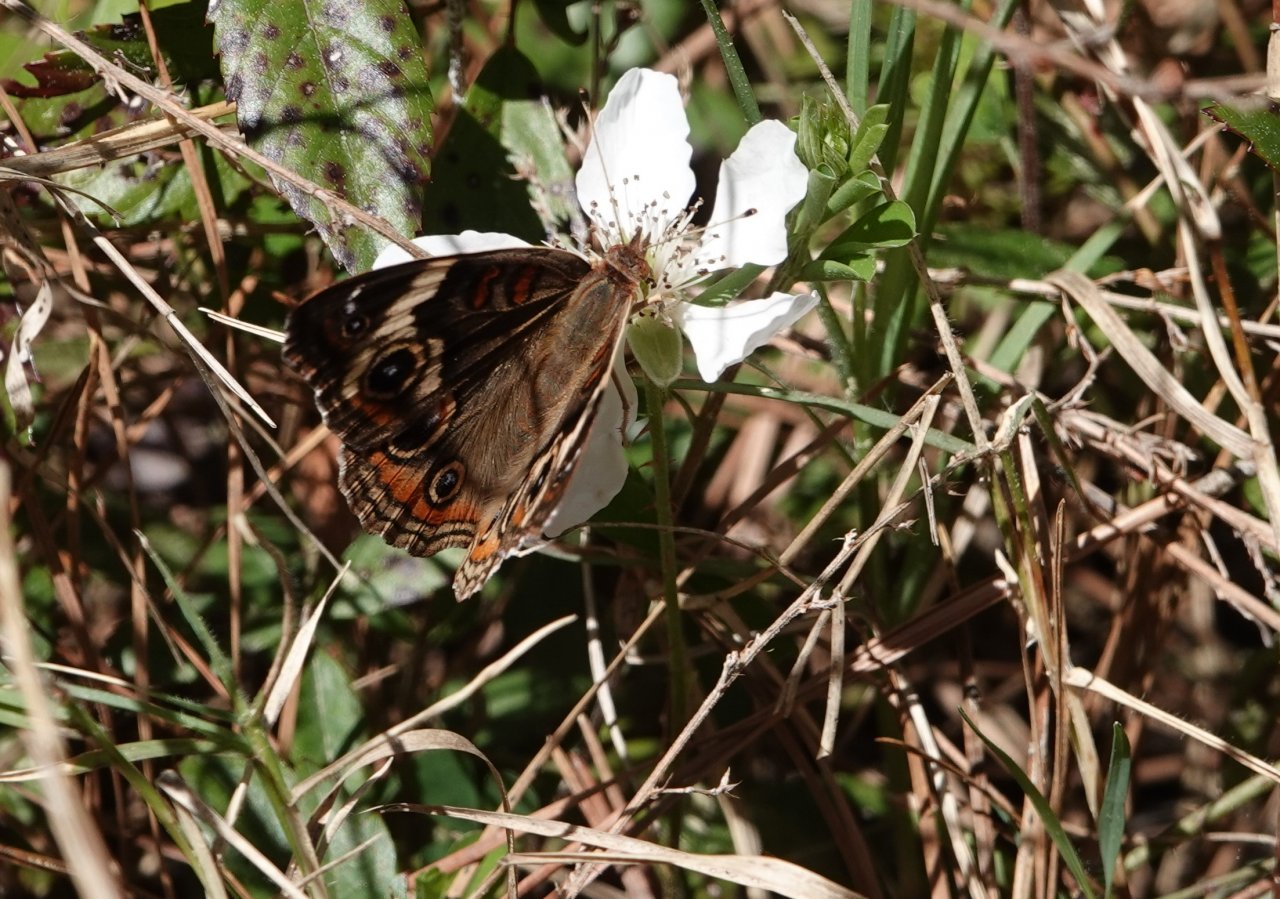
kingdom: Animalia
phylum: Arthropoda
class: Insecta
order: Lepidoptera
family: Nymphalidae
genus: Junonia
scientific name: Junonia coenia
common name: Common Buckeye
